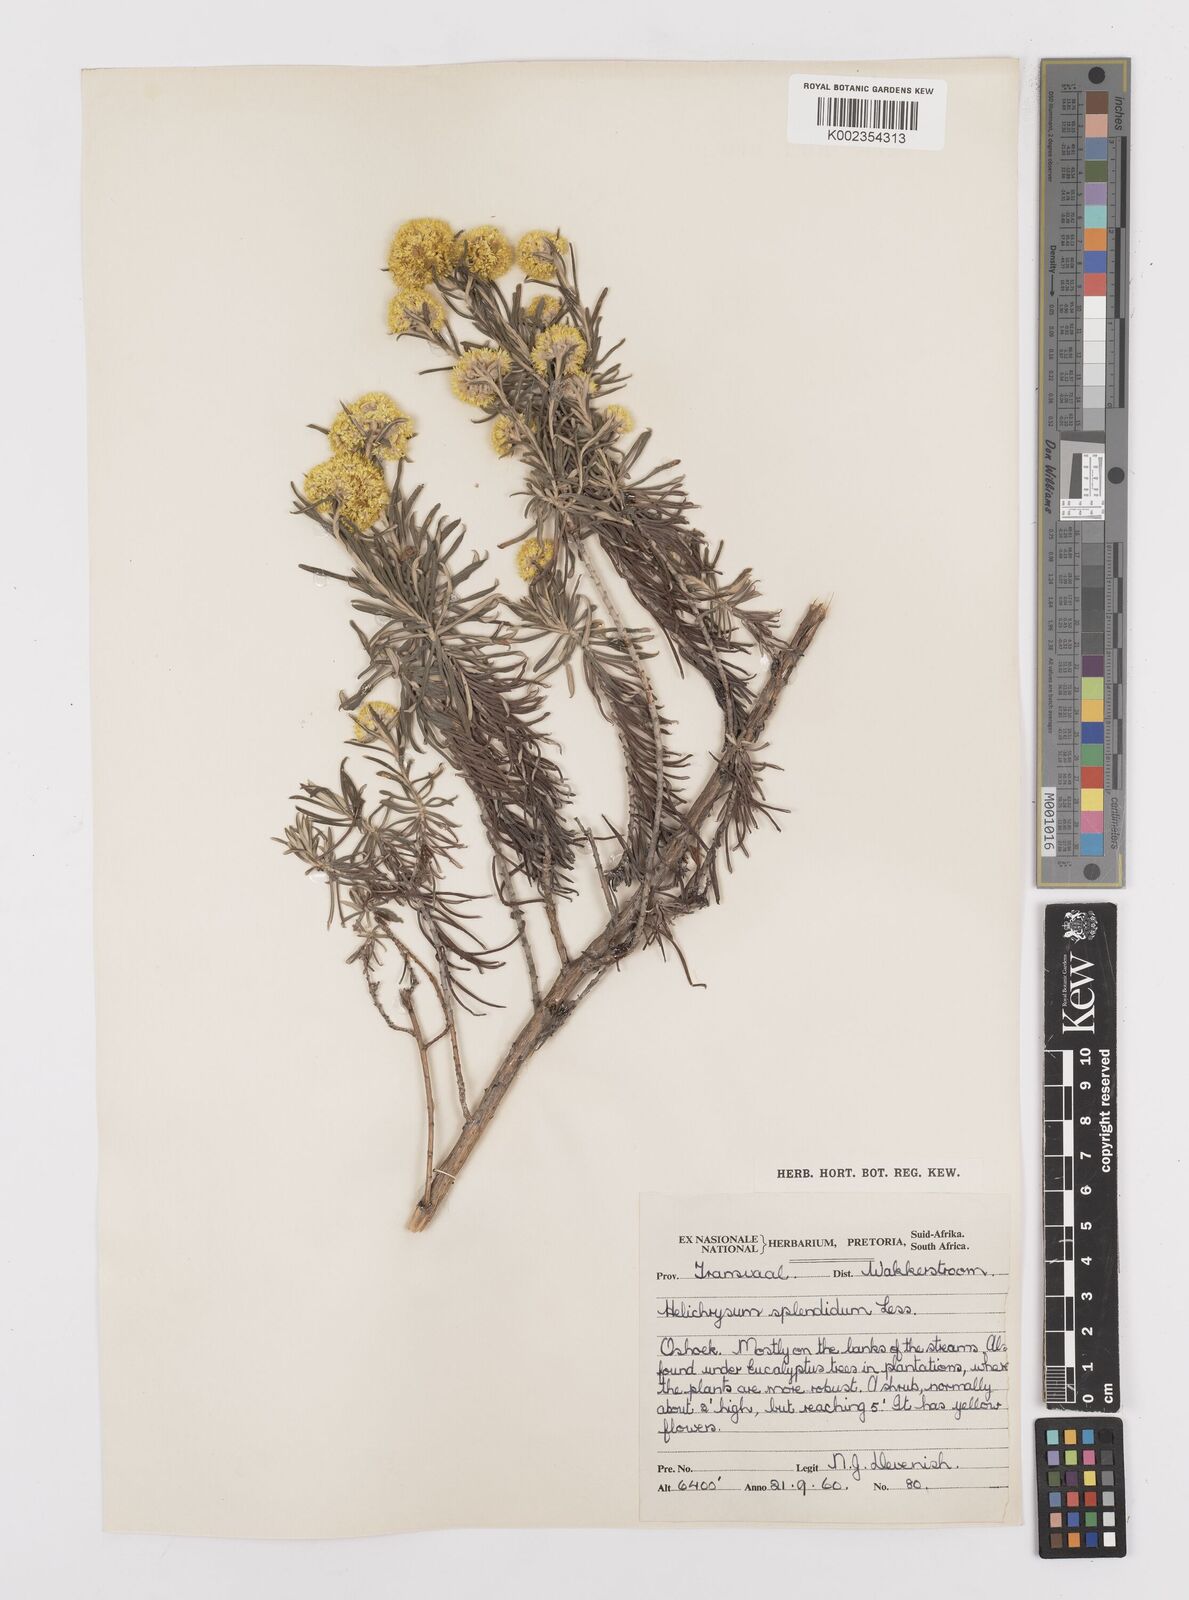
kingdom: Plantae
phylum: Tracheophyta
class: Magnoliopsida
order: Asterales
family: Asteraceae
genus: Helichrysum
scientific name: Helichrysum splendidum
